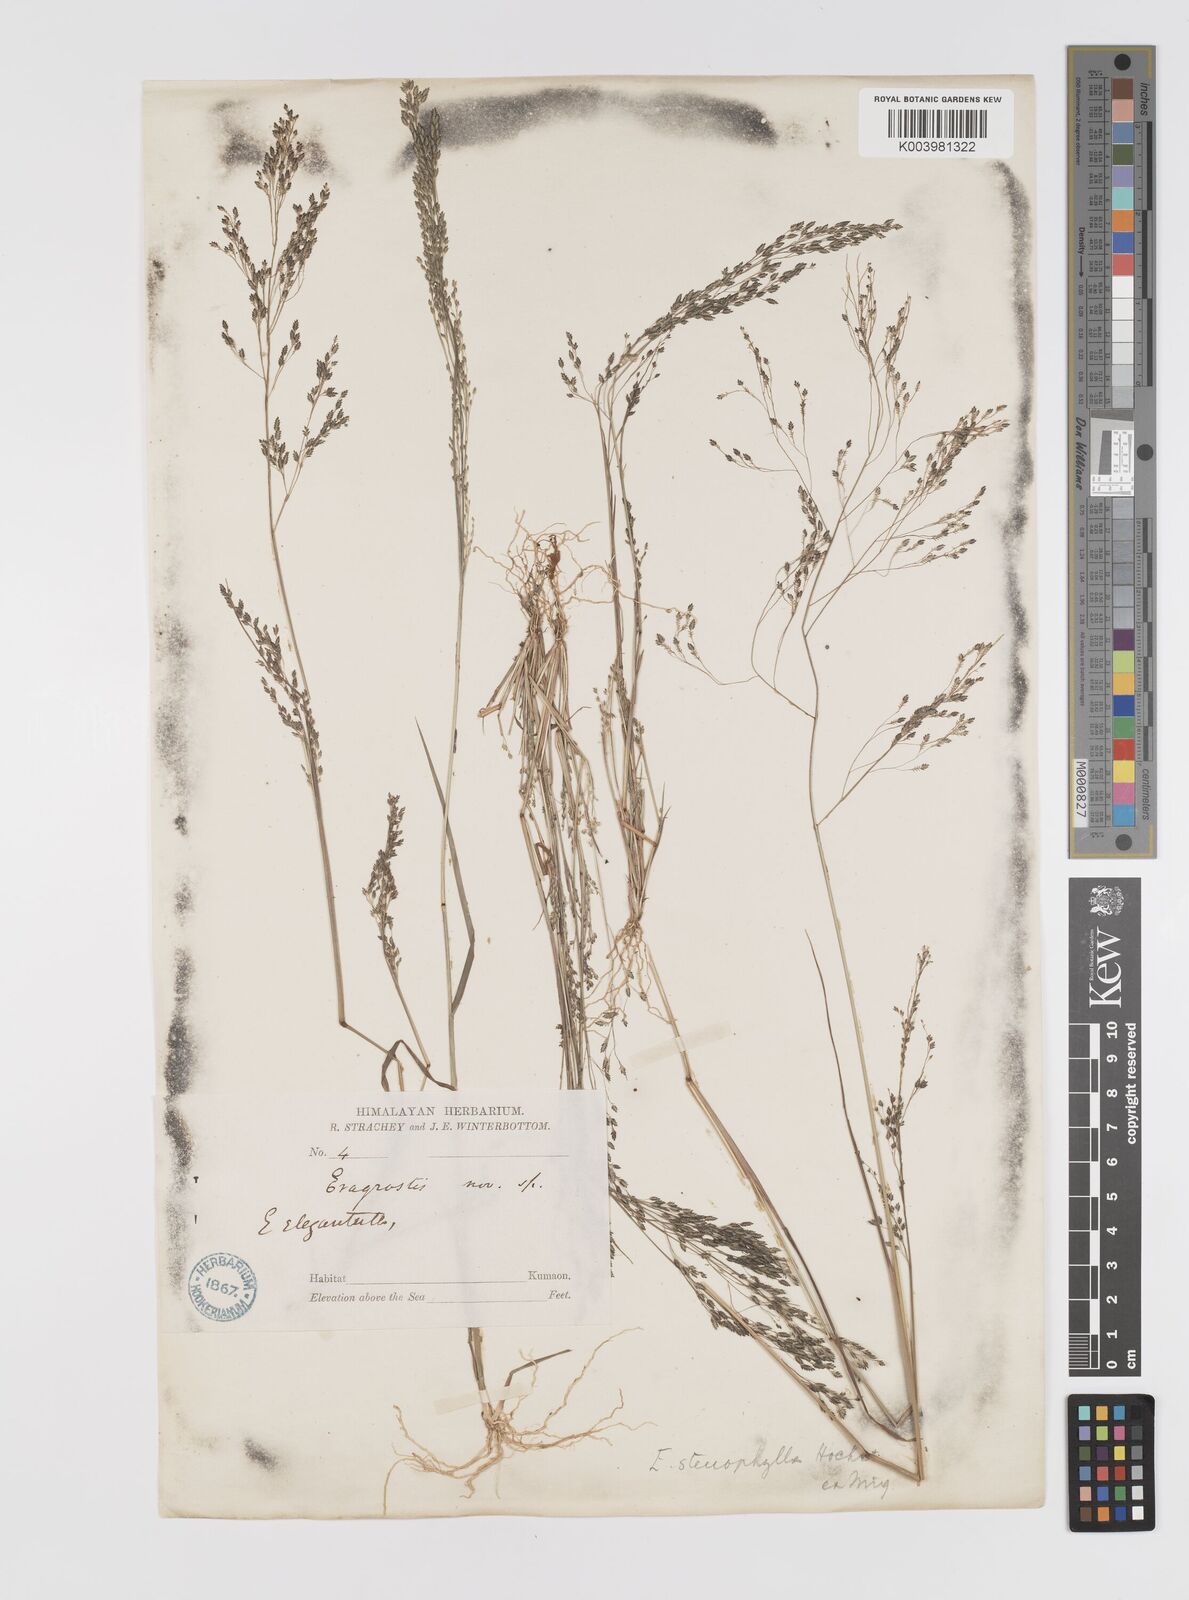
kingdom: Plantae
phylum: Tracheophyta
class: Liliopsida
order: Poales
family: Poaceae
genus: Eragrostis
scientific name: Eragrostis gangetica
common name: Slimflower lovegrass
